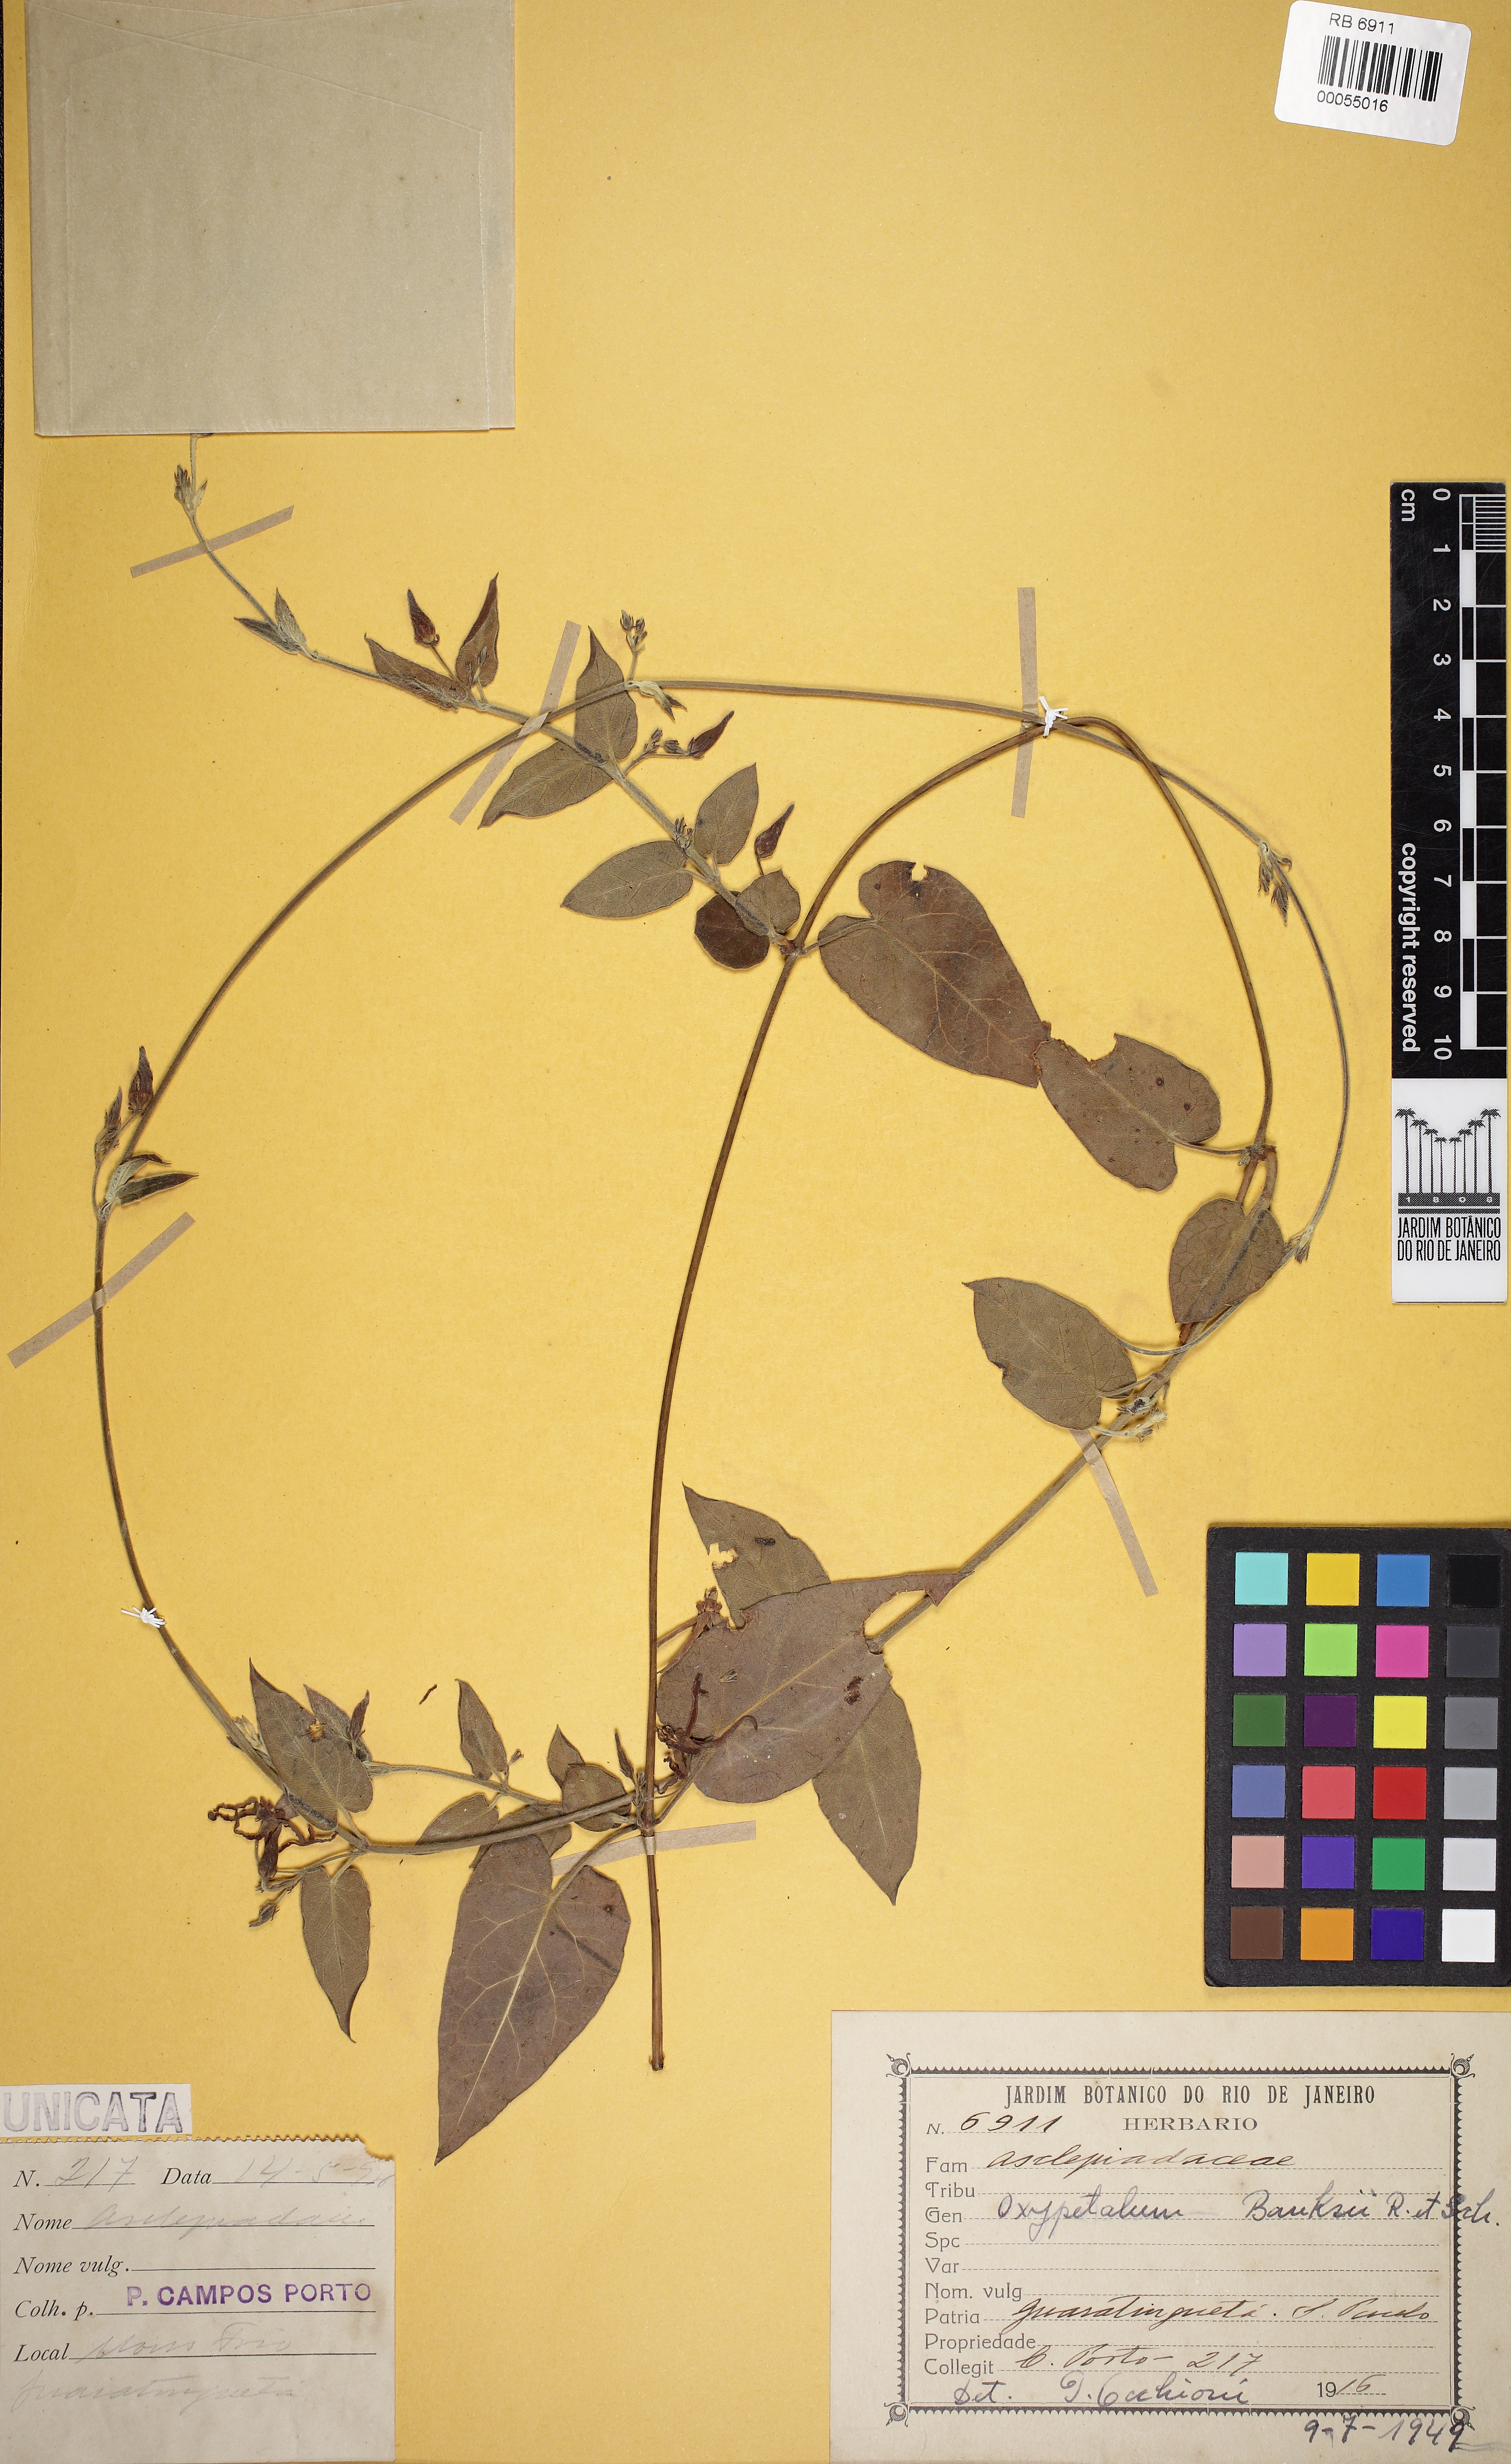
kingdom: Plantae
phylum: Tracheophyta
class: Magnoliopsida
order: Gentianales
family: Apocynaceae
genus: Oxypetalum
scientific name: Oxypetalum banksii
